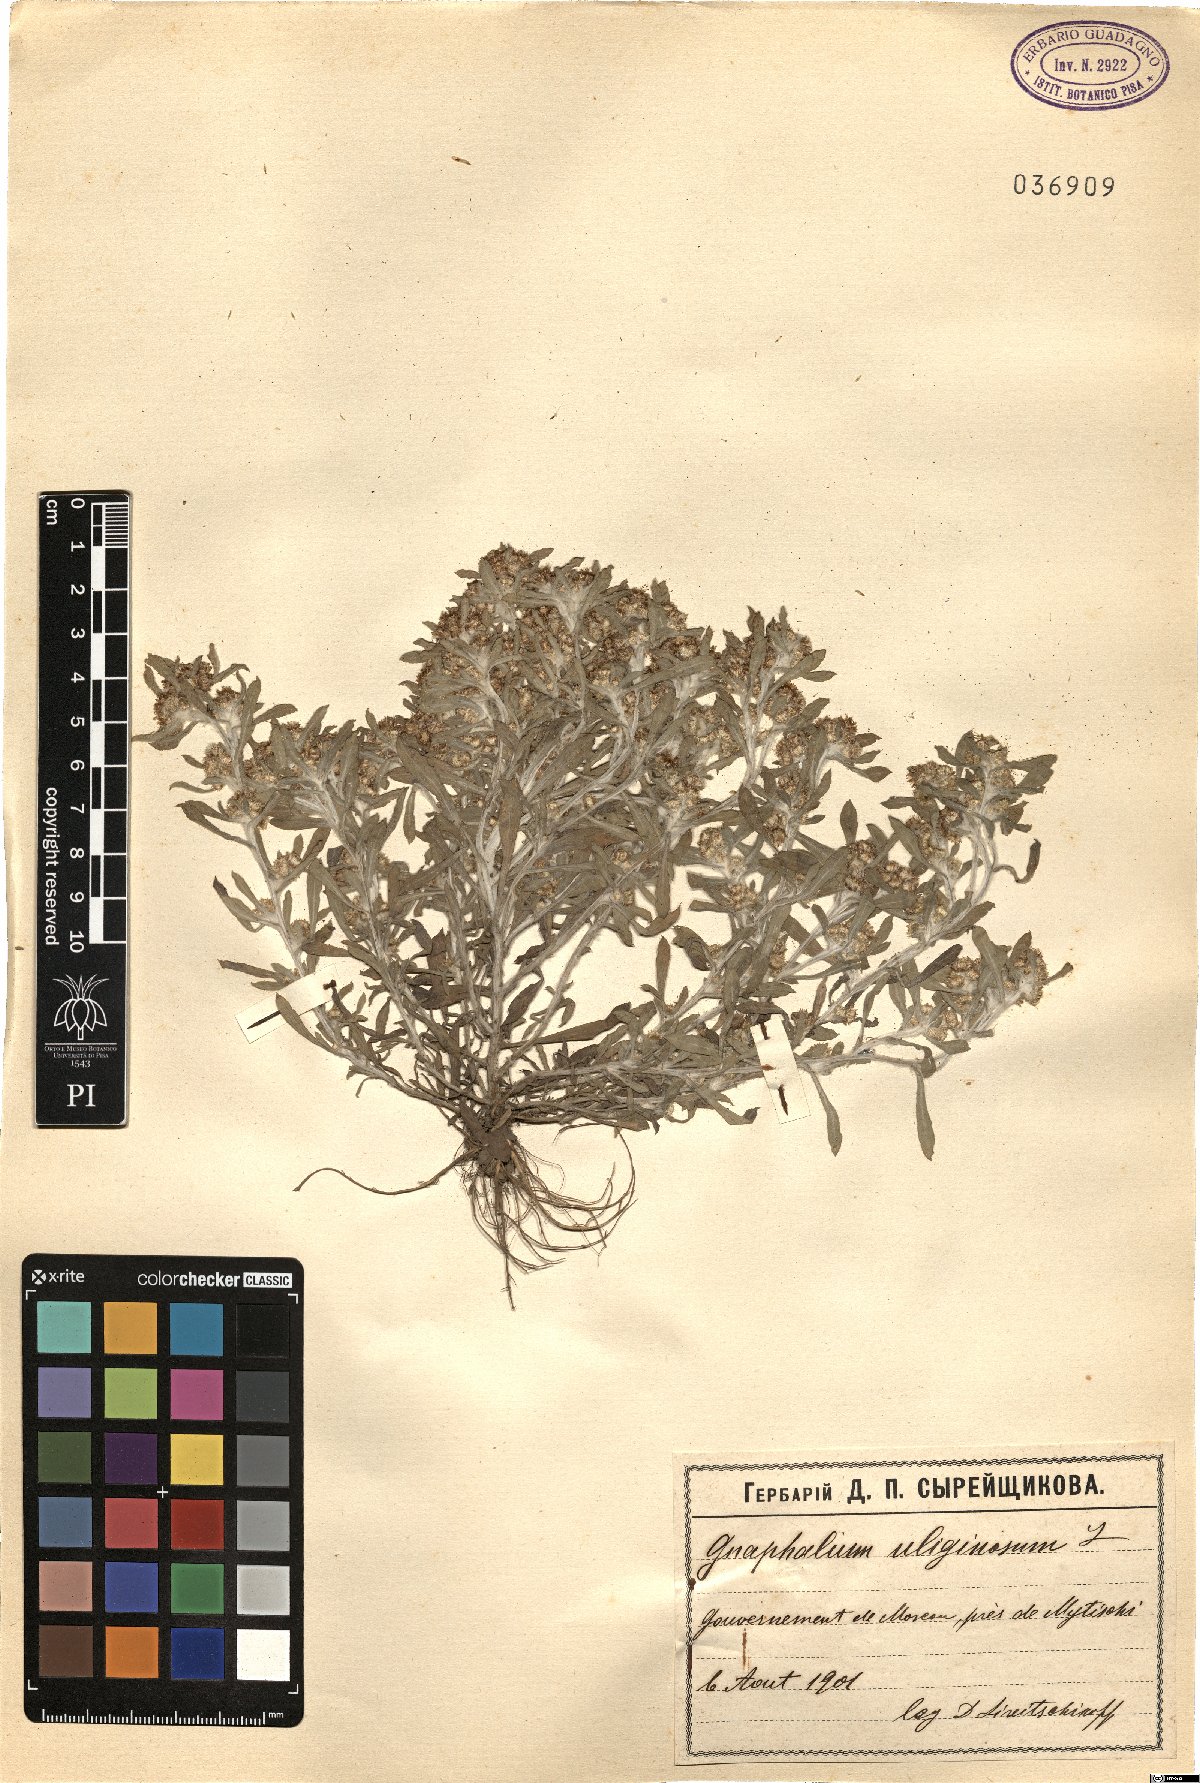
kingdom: Plantae
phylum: Tracheophyta
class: Magnoliopsida
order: Asterales
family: Asteraceae
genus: Gnaphalium
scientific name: Gnaphalium uliginosum
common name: Marsh cudweed
